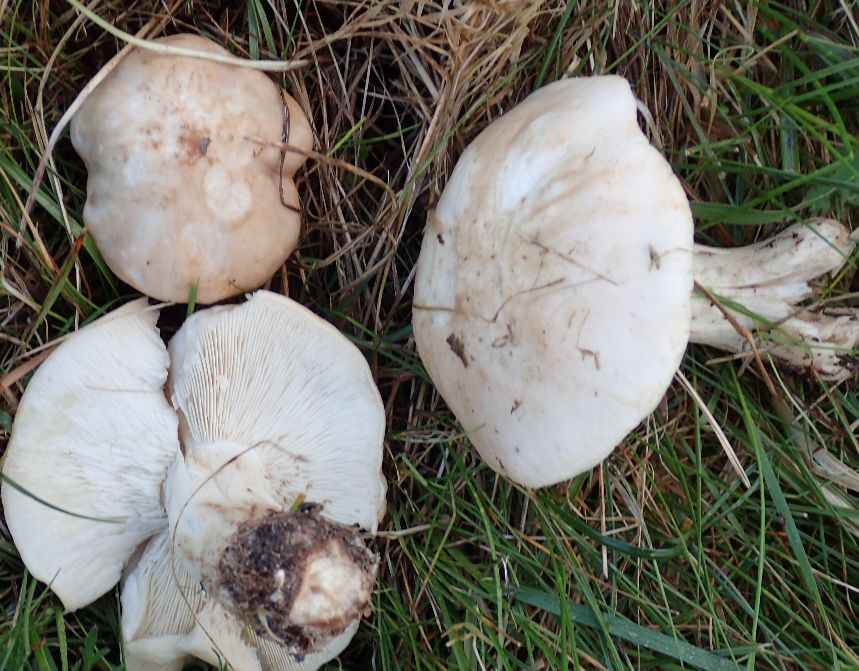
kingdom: Fungi
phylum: Basidiomycota
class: Agaricomycetes
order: Agaricales
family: Lyophyllaceae
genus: Calocybe
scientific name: Calocybe gambosa
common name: vårmusseron
